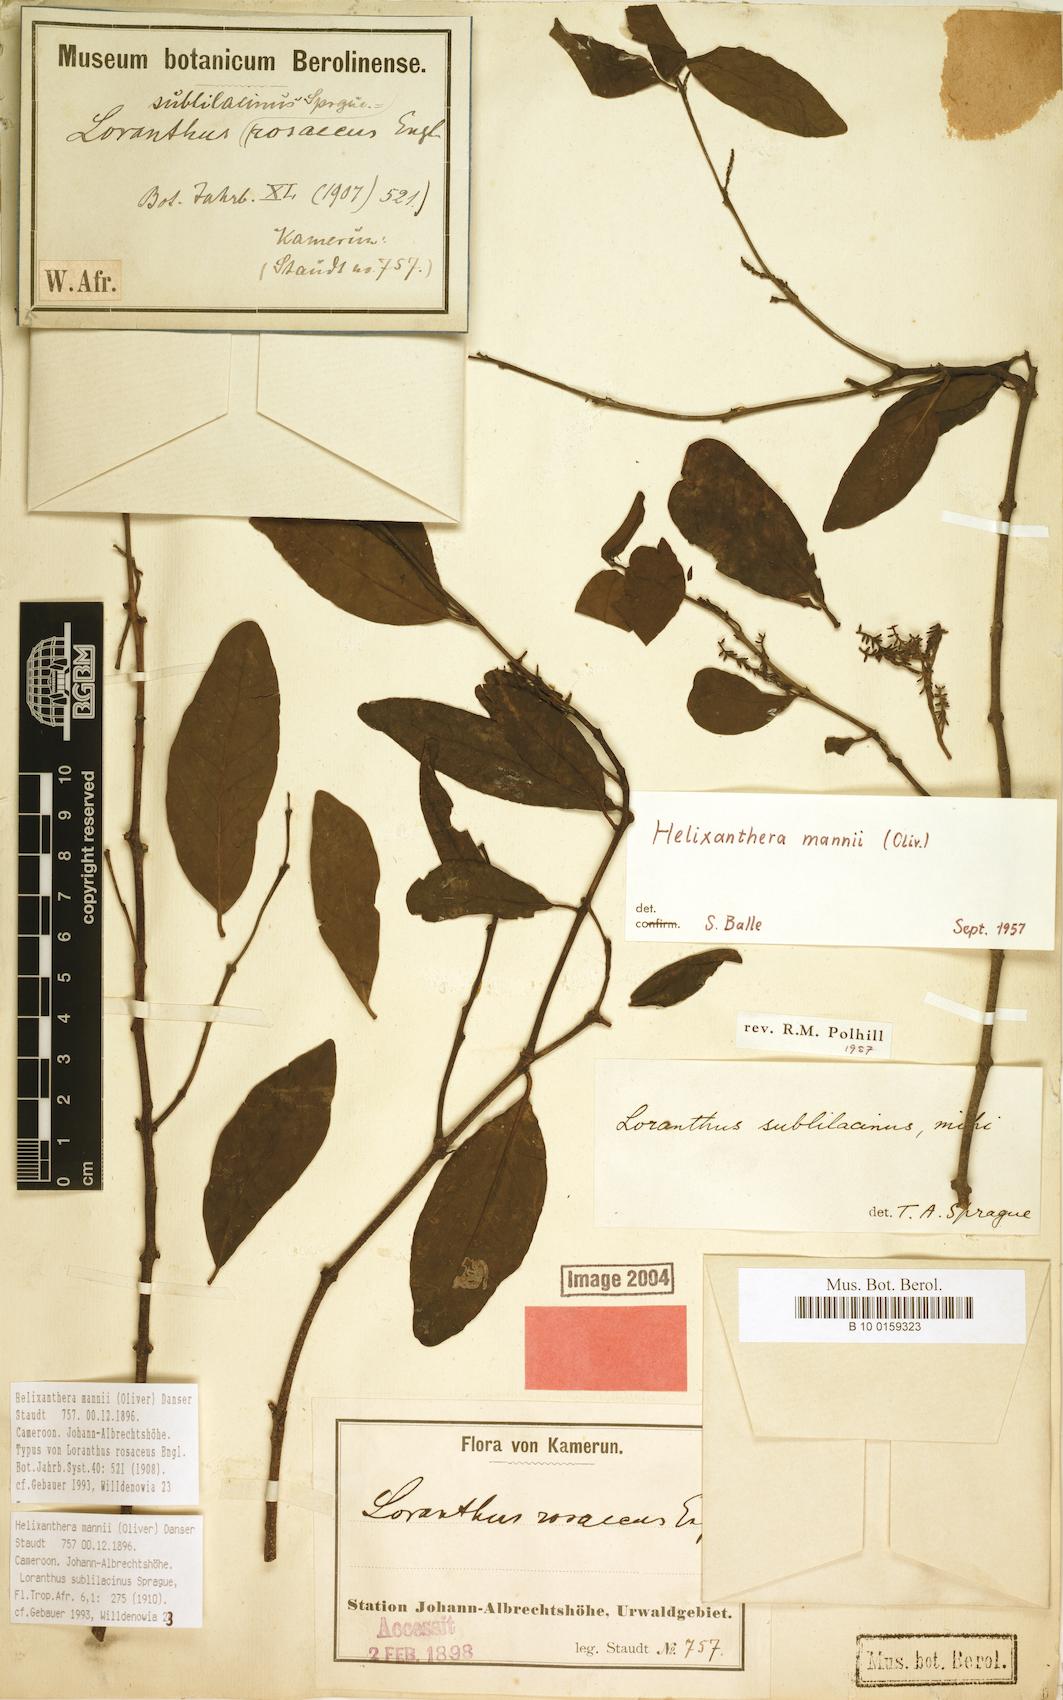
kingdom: Plantae
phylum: Tracheophyta
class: Magnoliopsida
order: Santalales
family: Loranthaceae
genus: Helixanthera
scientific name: Helixanthera mannii
